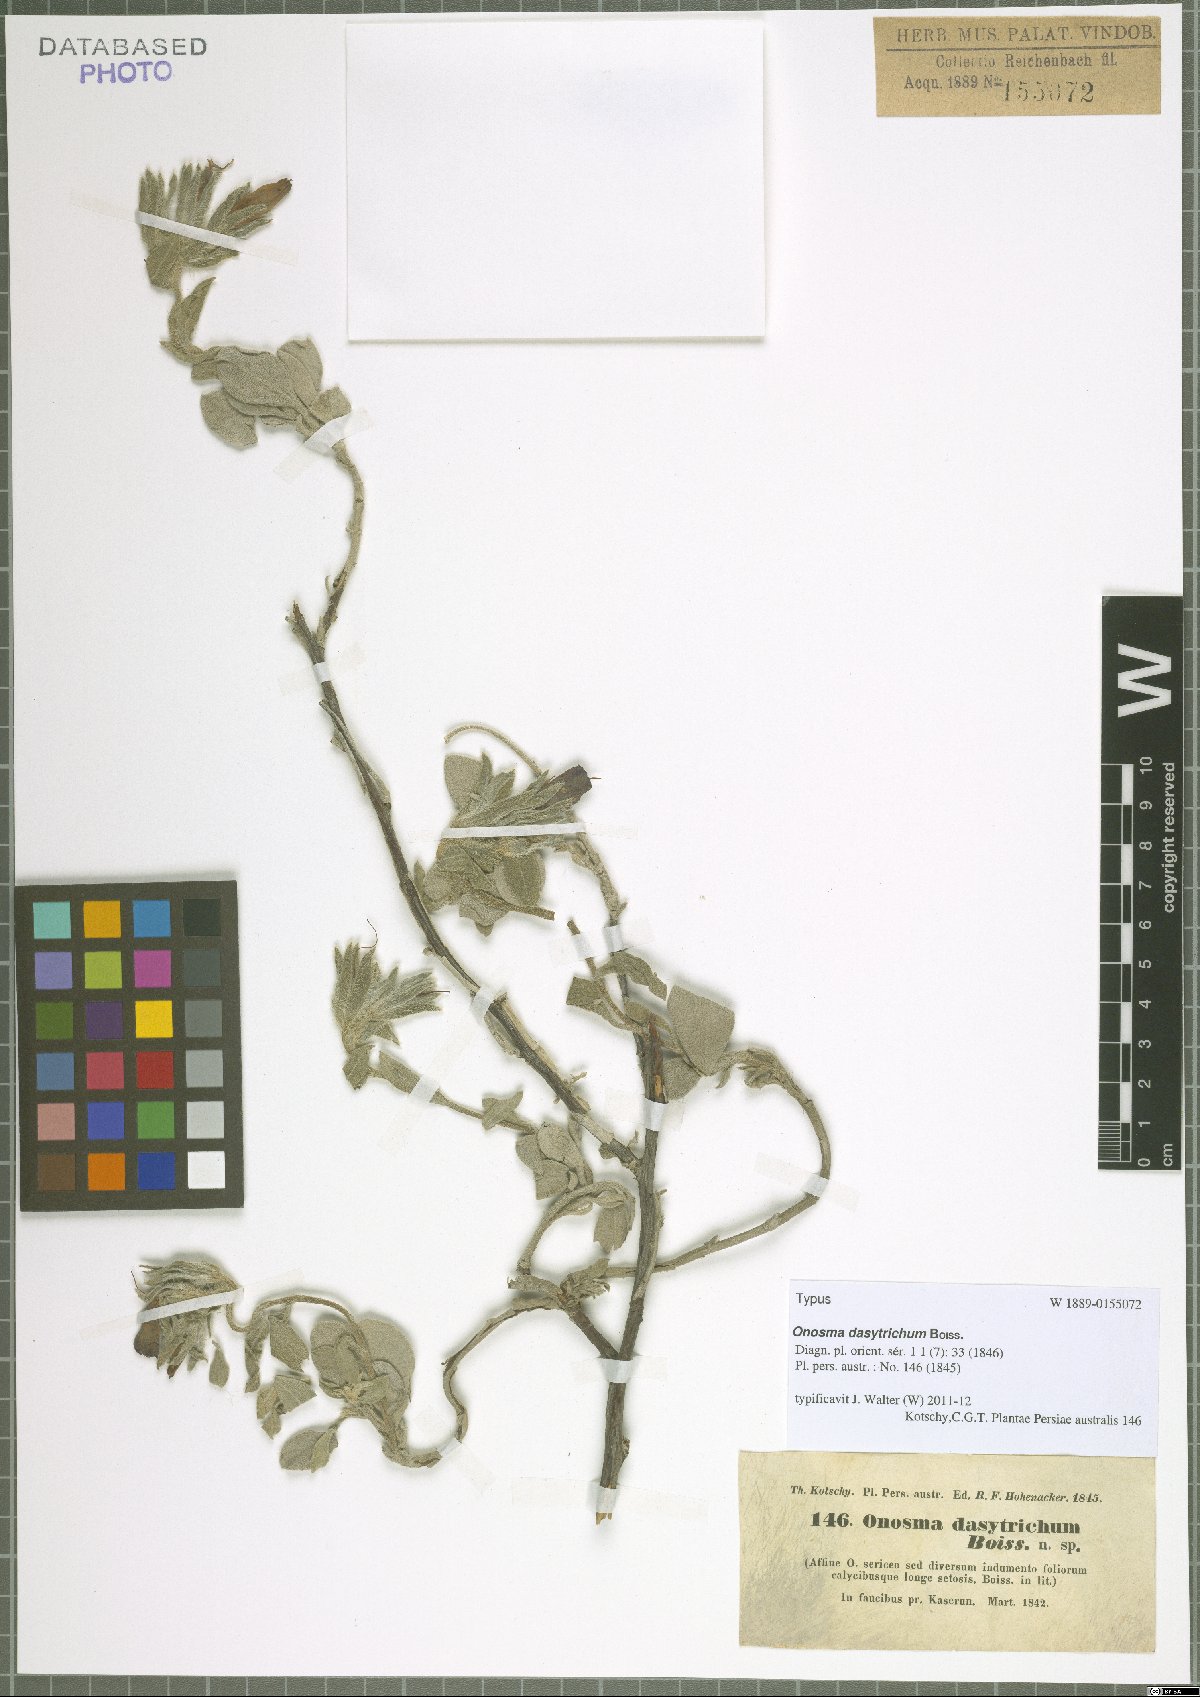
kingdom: Plantae
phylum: Tracheophyta
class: Magnoliopsida
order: Boraginales
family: Boraginaceae
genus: Onosma
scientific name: Onosma dasytricha
